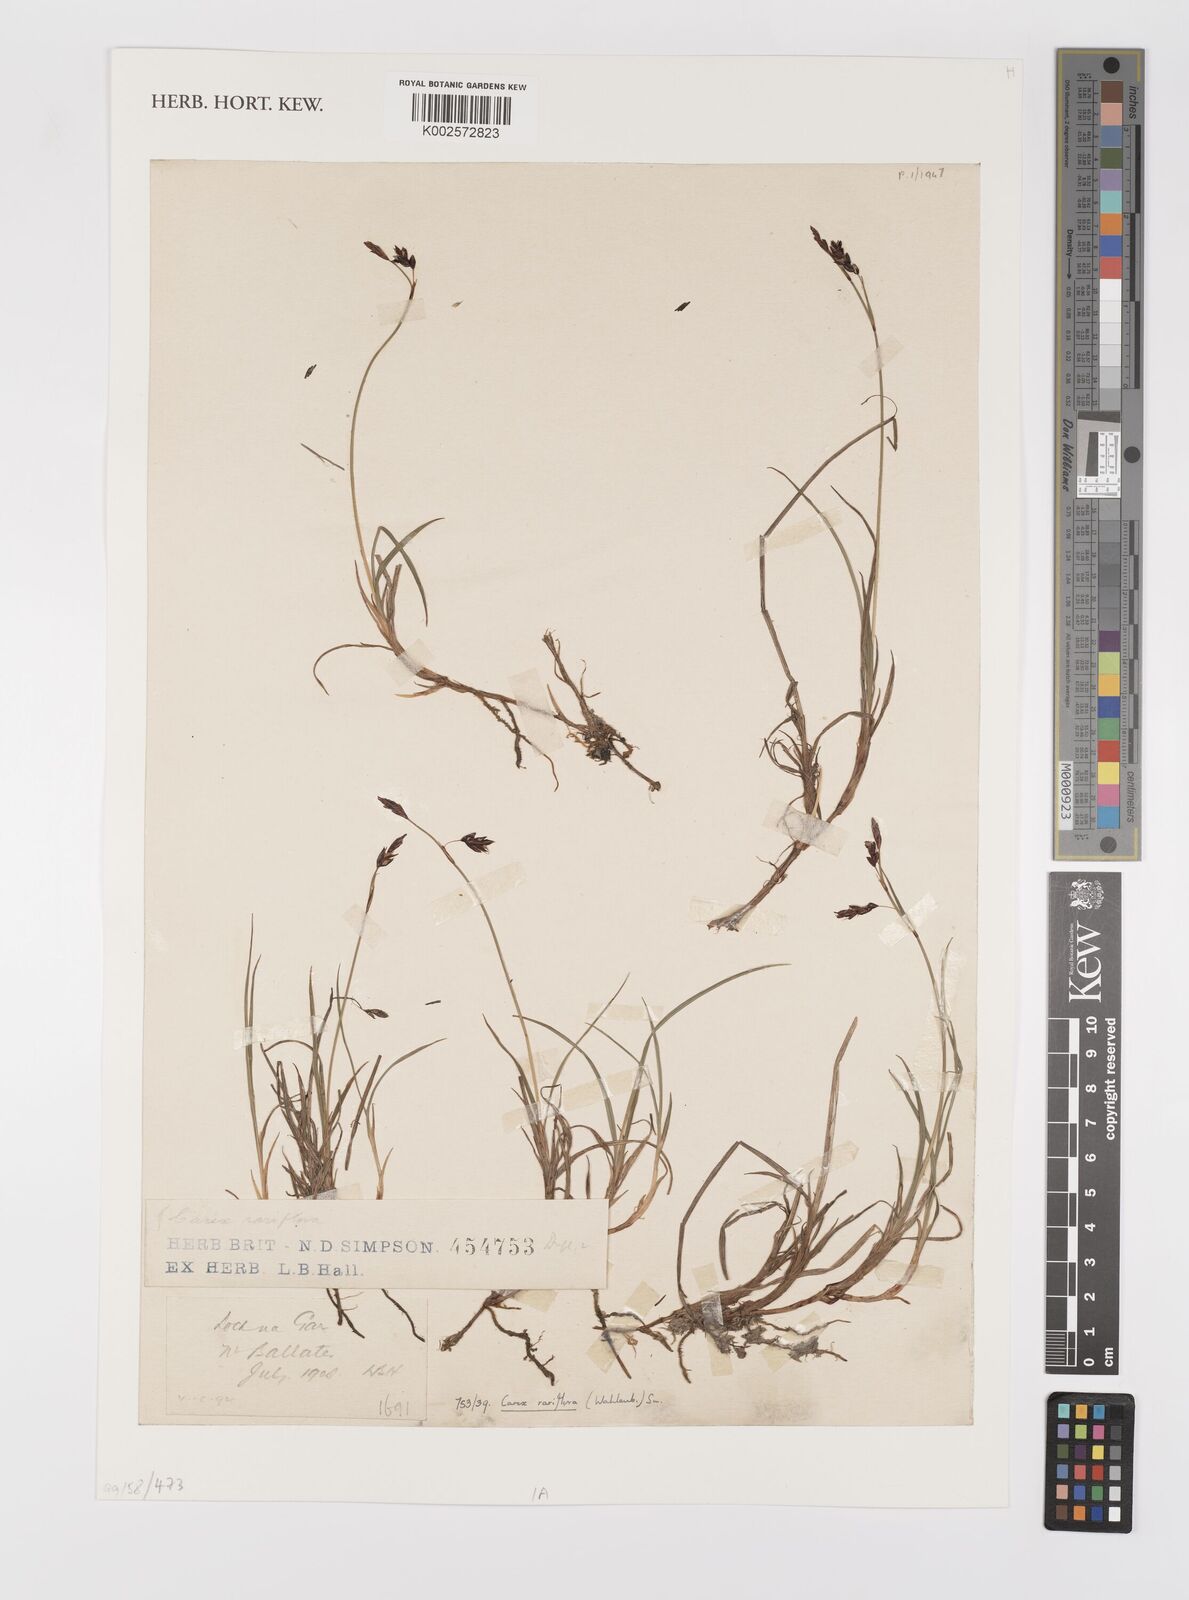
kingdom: Plantae
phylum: Tracheophyta
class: Liliopsida
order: Poales
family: Cyperaceae
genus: Carex
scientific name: Carex rariflora
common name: Loose-flowered alpine sedge
